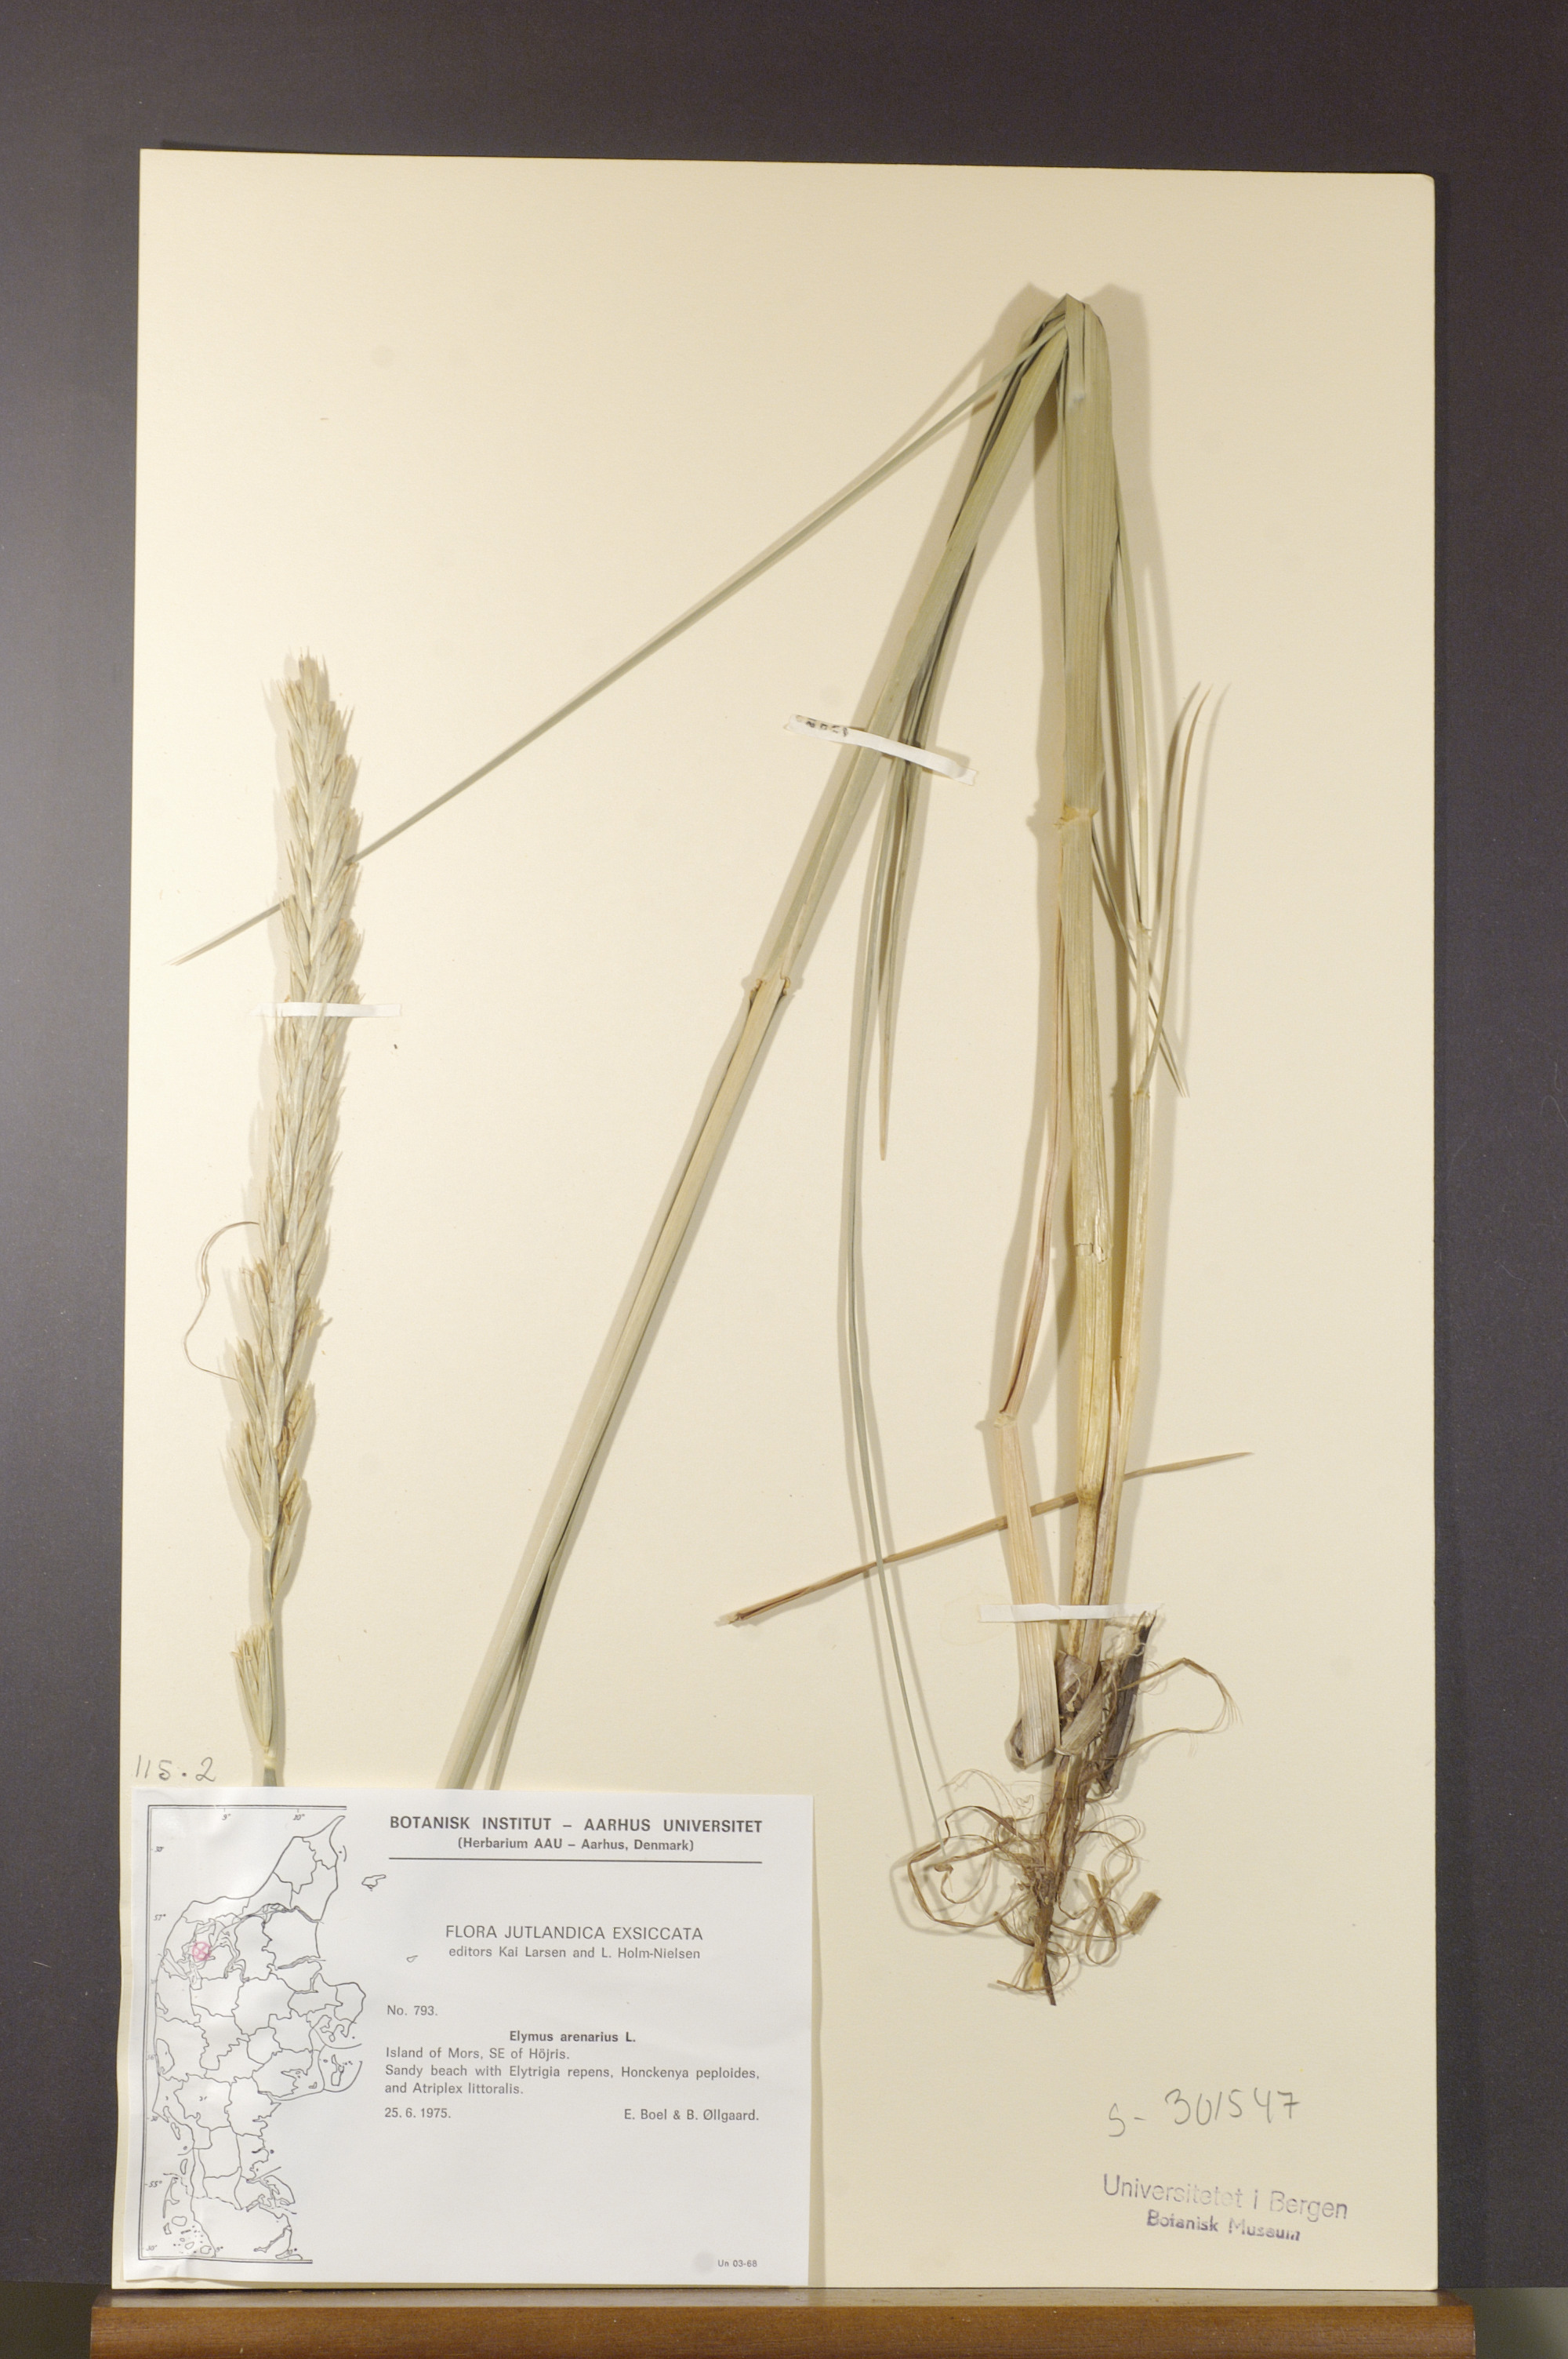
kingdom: Plantae
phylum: Tracheophyta
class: Liliopsida
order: Poales
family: Poaceae
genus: Leymus
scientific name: Leymus arenarius
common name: Lyme-grass
